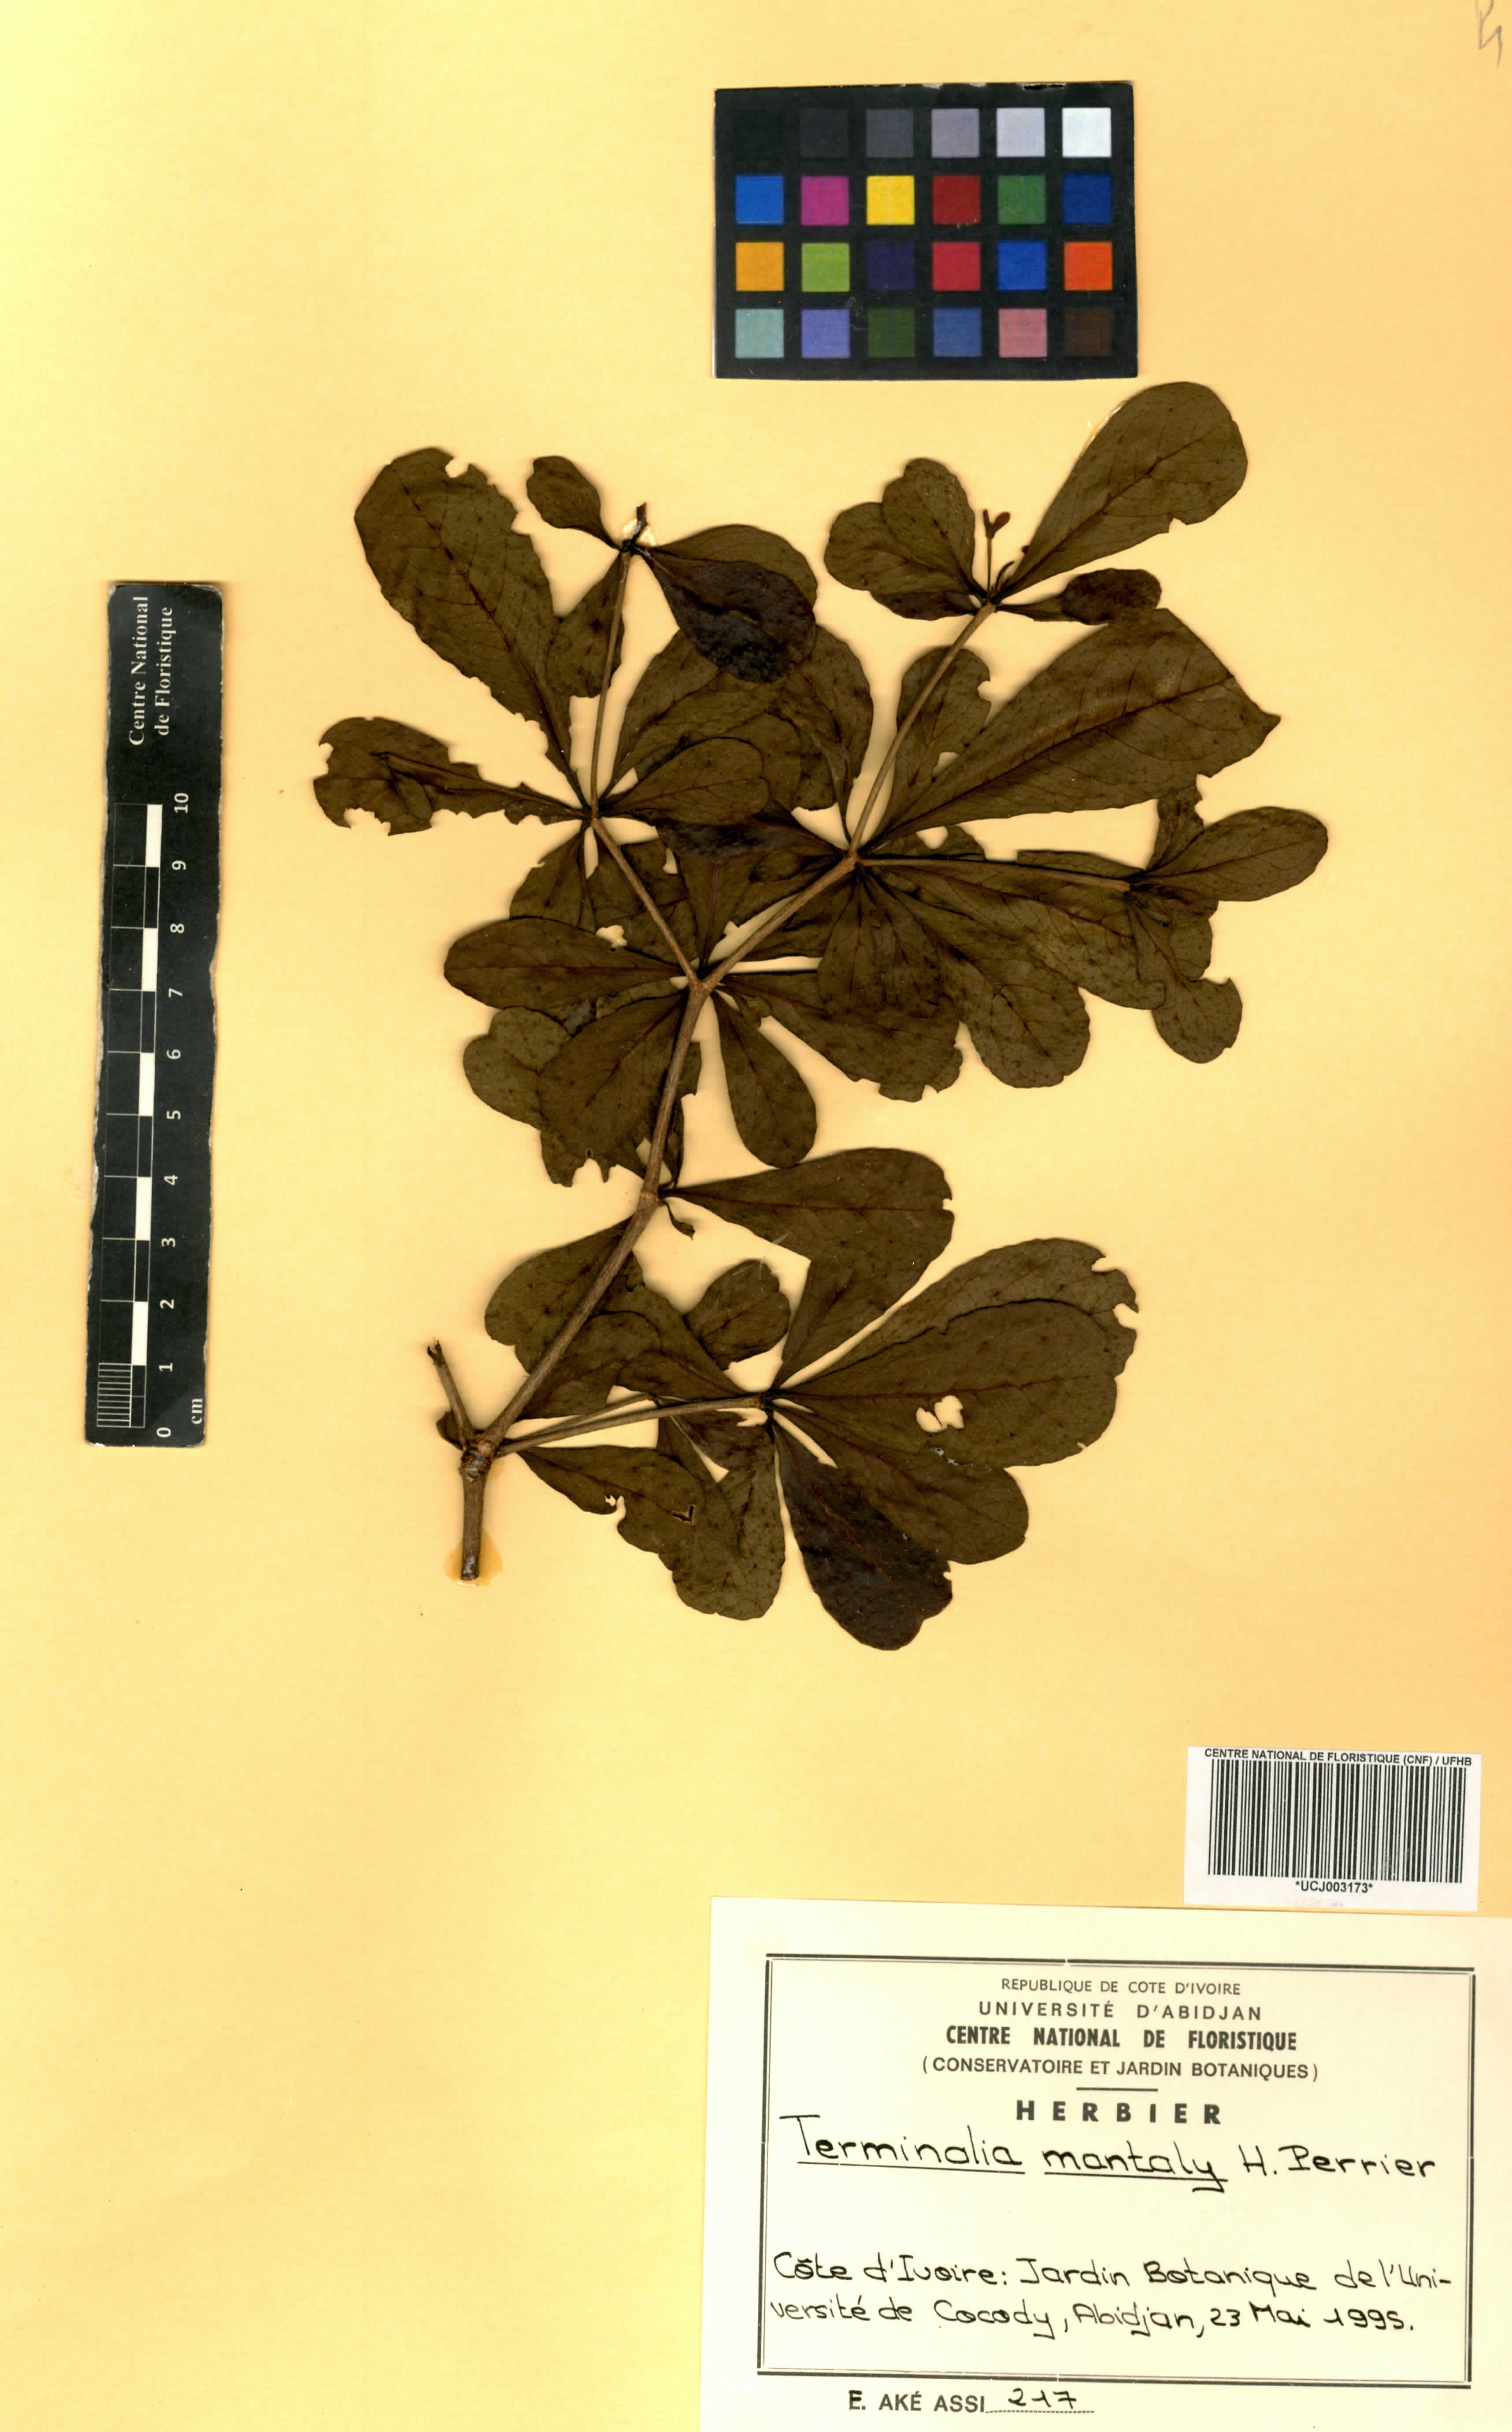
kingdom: Plantae
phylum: Tracheophyta
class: Magnoliopsida
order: Myrtales
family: Combretaceae
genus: Terminalia
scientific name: Terminalia neotaliala
